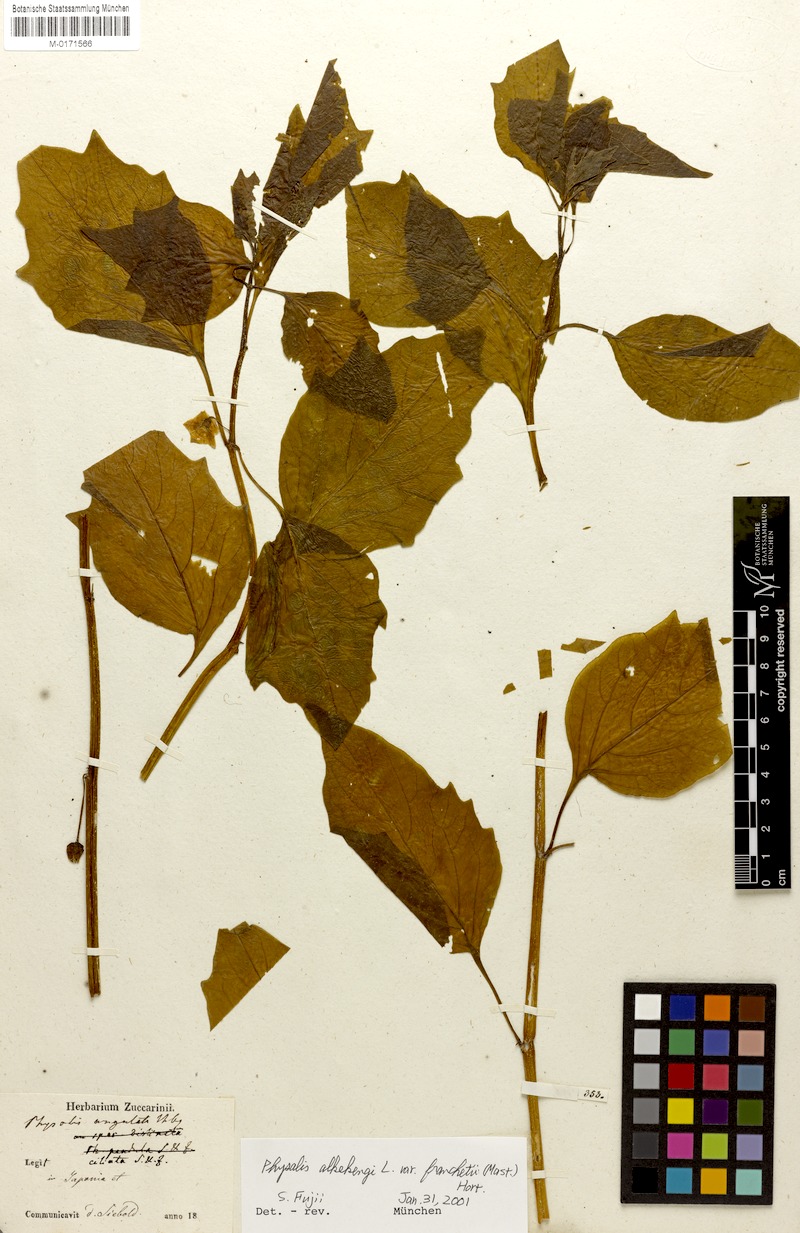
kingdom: Plantae
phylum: Tracheophyta
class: Magnoliopsida
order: Solanales
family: Solanaceae
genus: Alkekengi
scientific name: Alkekengi officinarum
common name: Japanese-lantern
